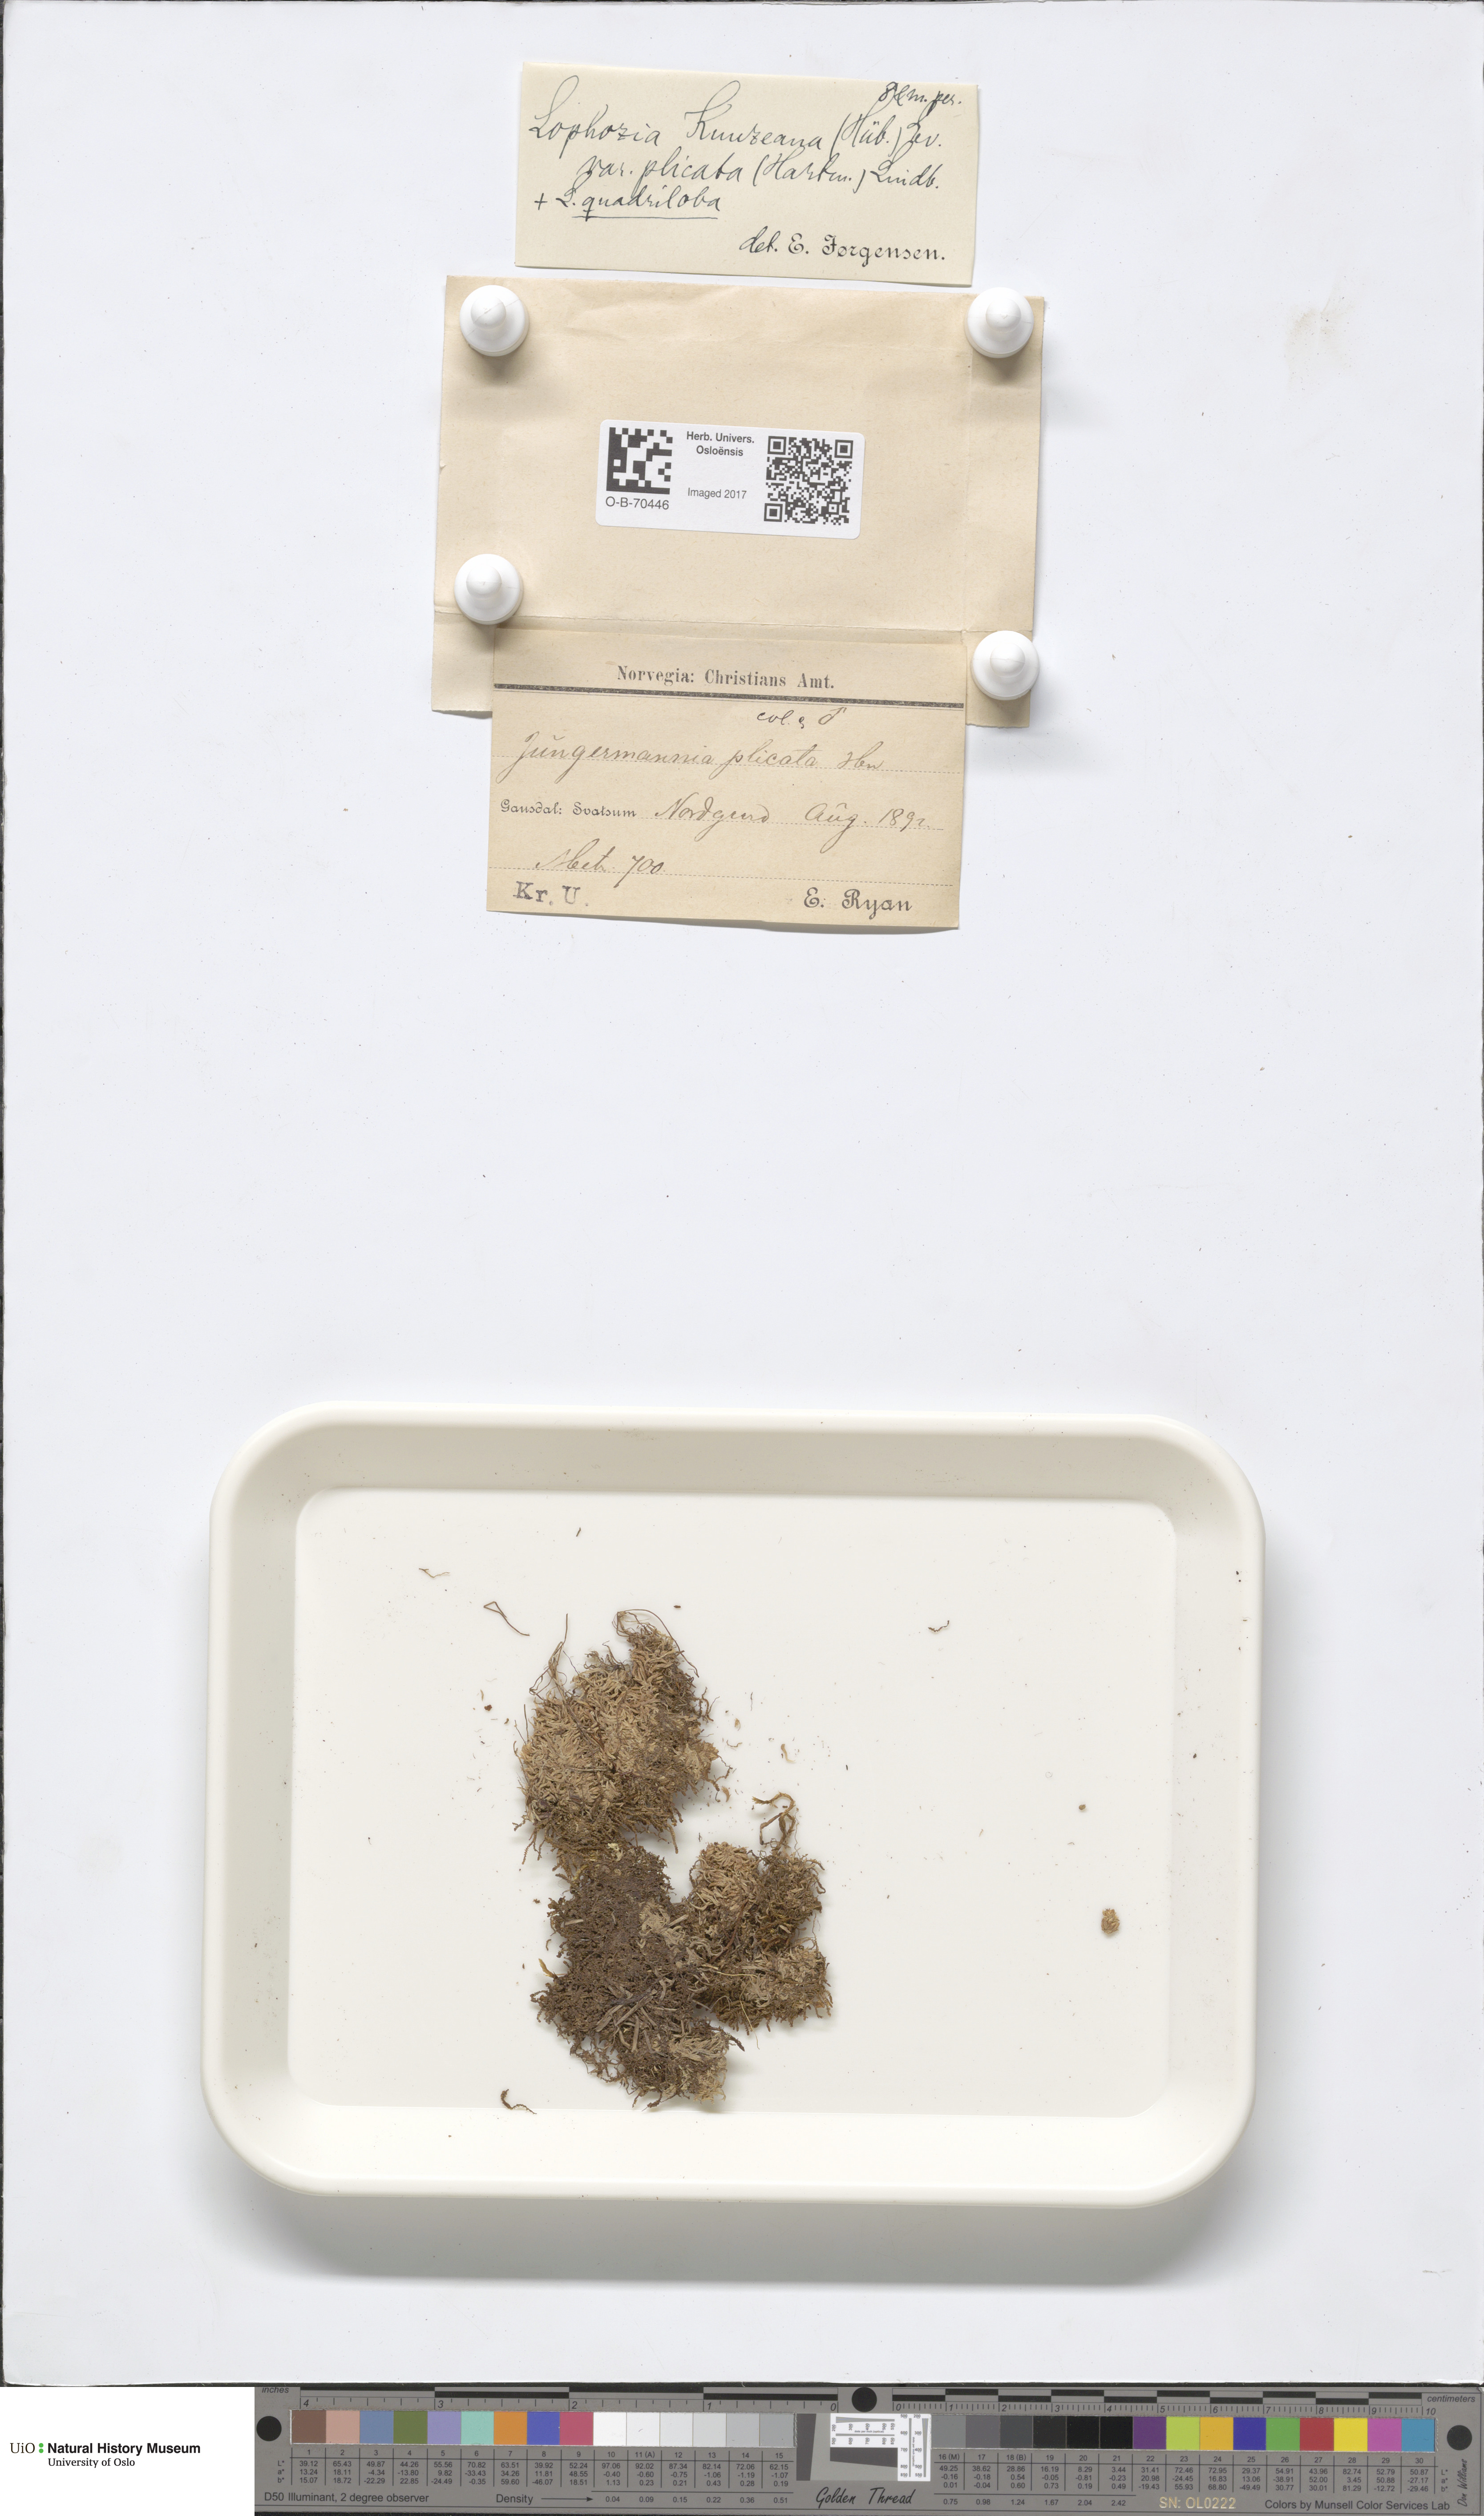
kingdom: Plantae
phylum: Marchantiophyta
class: Jungermanniopsida
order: Jungermanniales
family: Anastrophyllaceae
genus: Schljakovia
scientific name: Schljakovia kunzeana
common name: Kunze's pawwort
